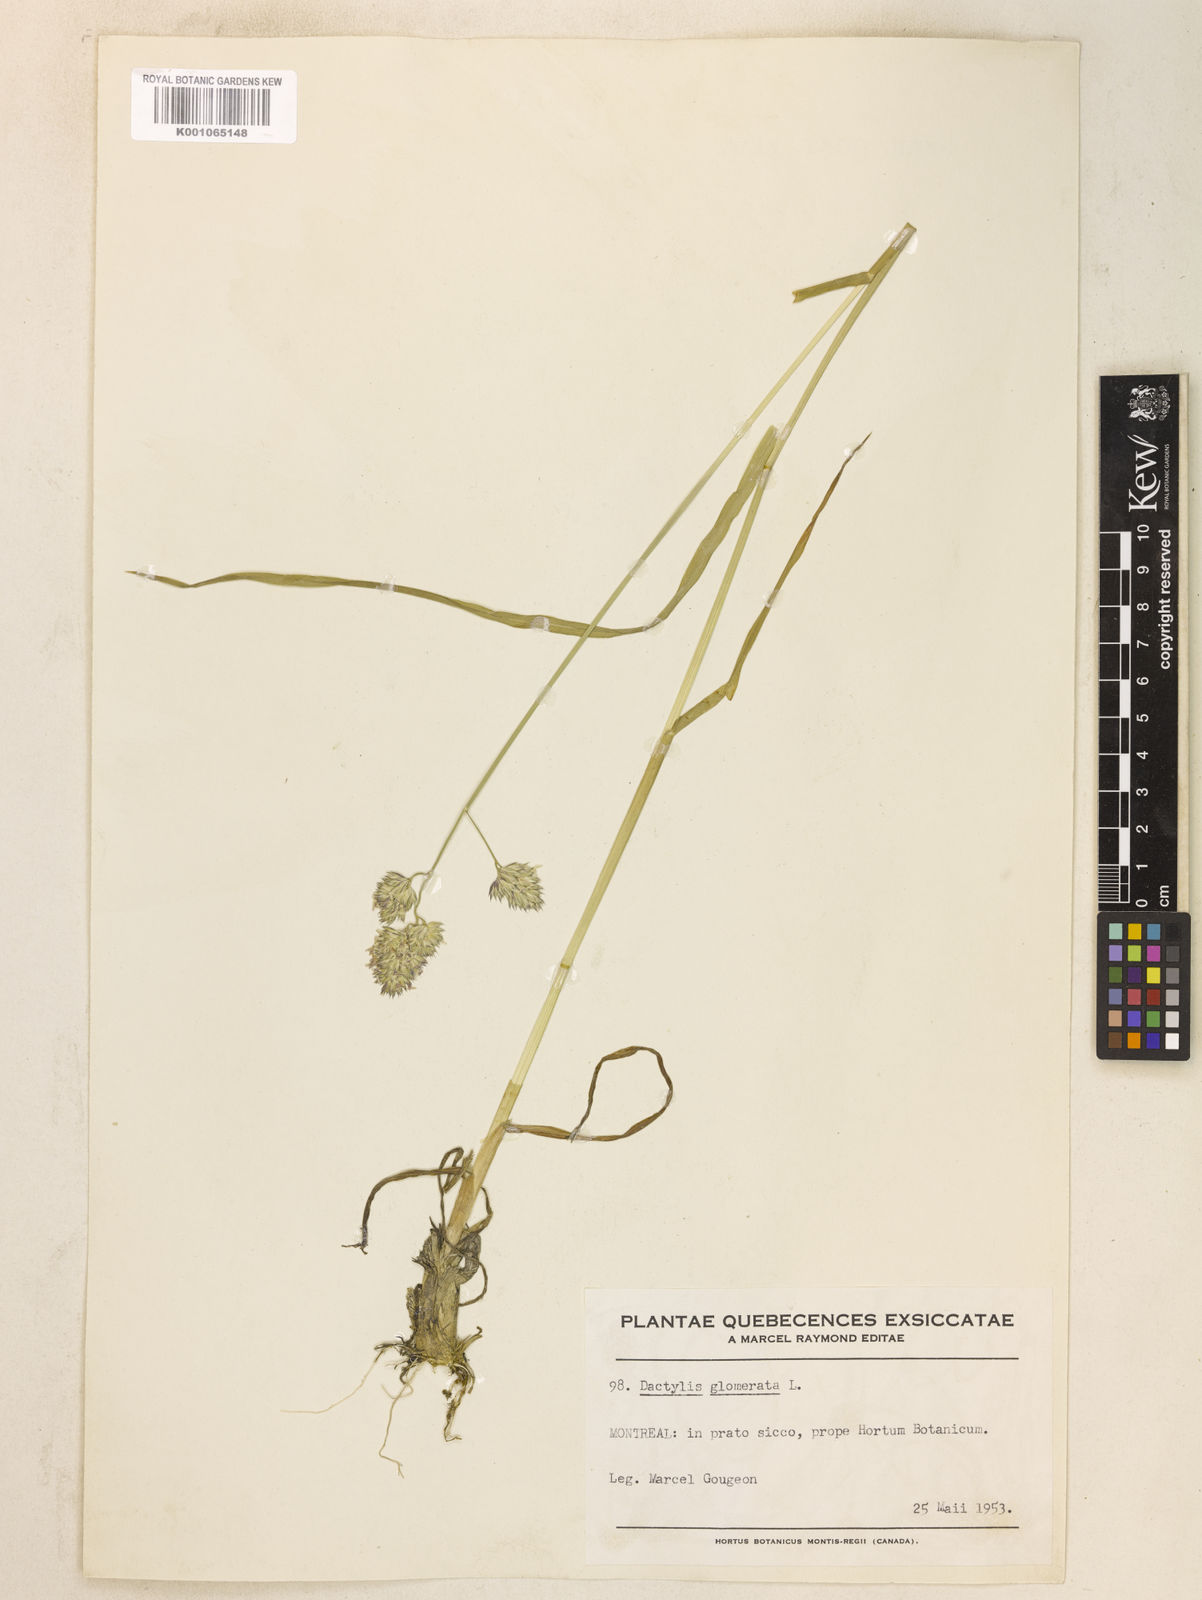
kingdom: Plantae
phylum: Tracheophyta
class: Liliopsida
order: Poales
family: Poaceae
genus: Dactylis
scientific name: Dactylis glomerata
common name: Orchardgrass
